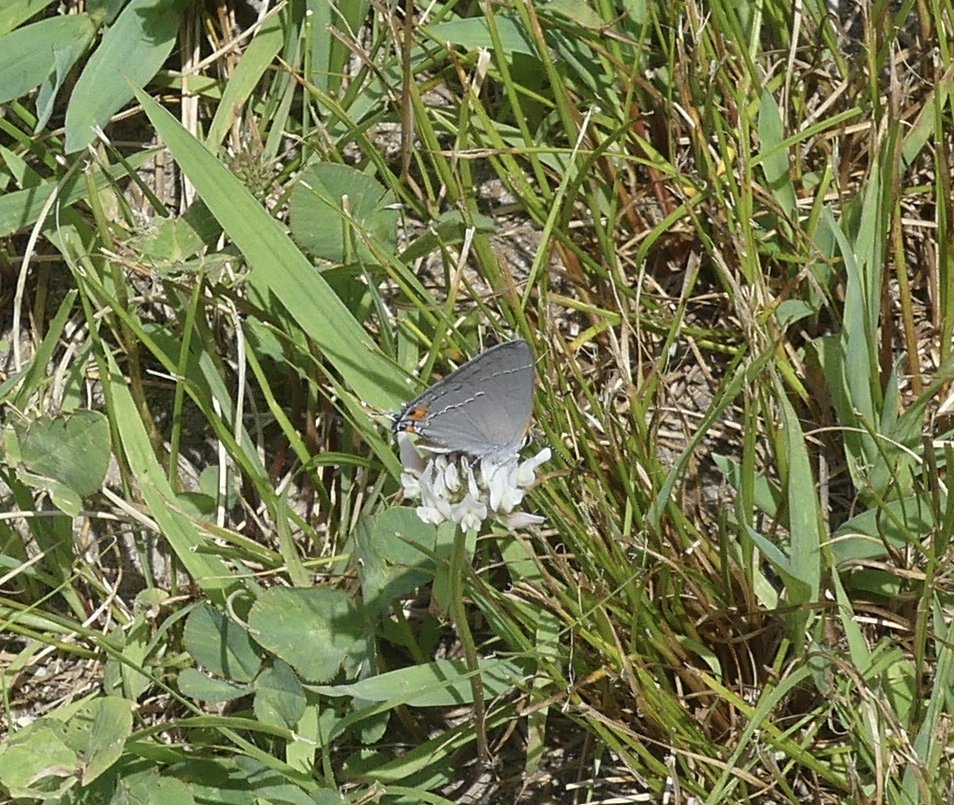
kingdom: Animalia
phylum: Arthropoda
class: Insecta
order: Lepidoptera
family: Lycaenidae
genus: Strymon
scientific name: Strymon melinus
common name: Gray Hairstreak
